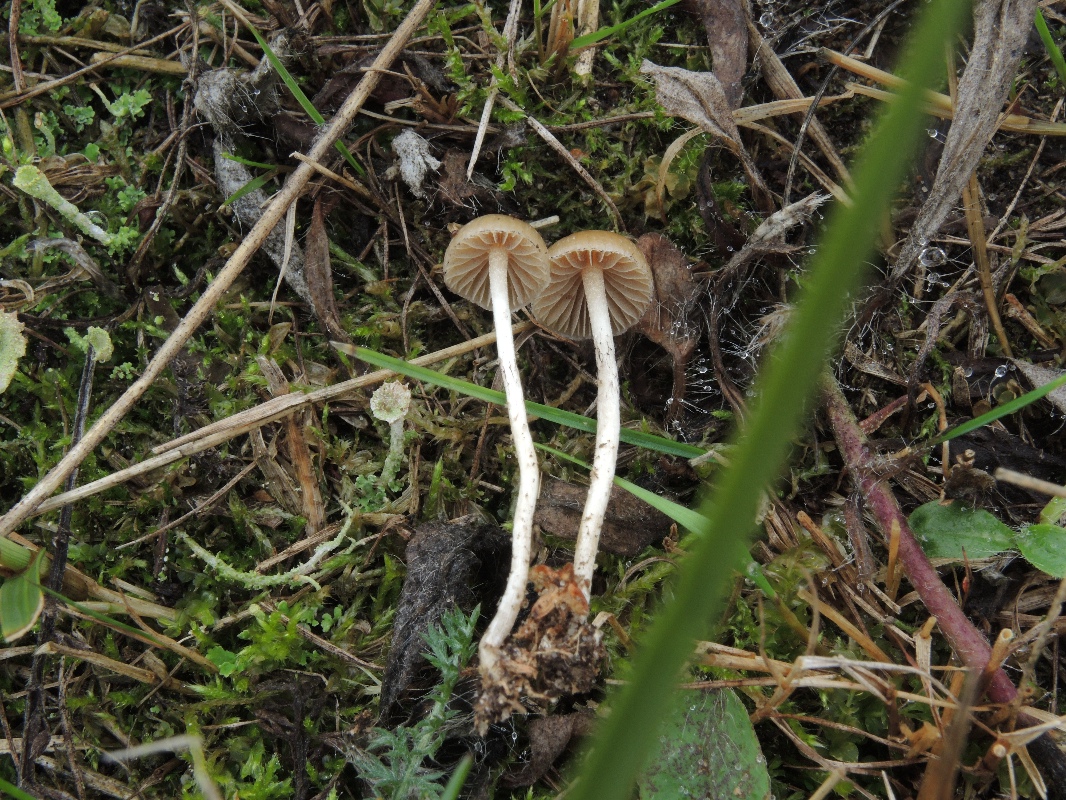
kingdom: Fungi
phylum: Basidiomycota
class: Agaricomycetes
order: Agaricales
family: Strophariaceae
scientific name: Strophariaceae
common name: bredbladfamilien
